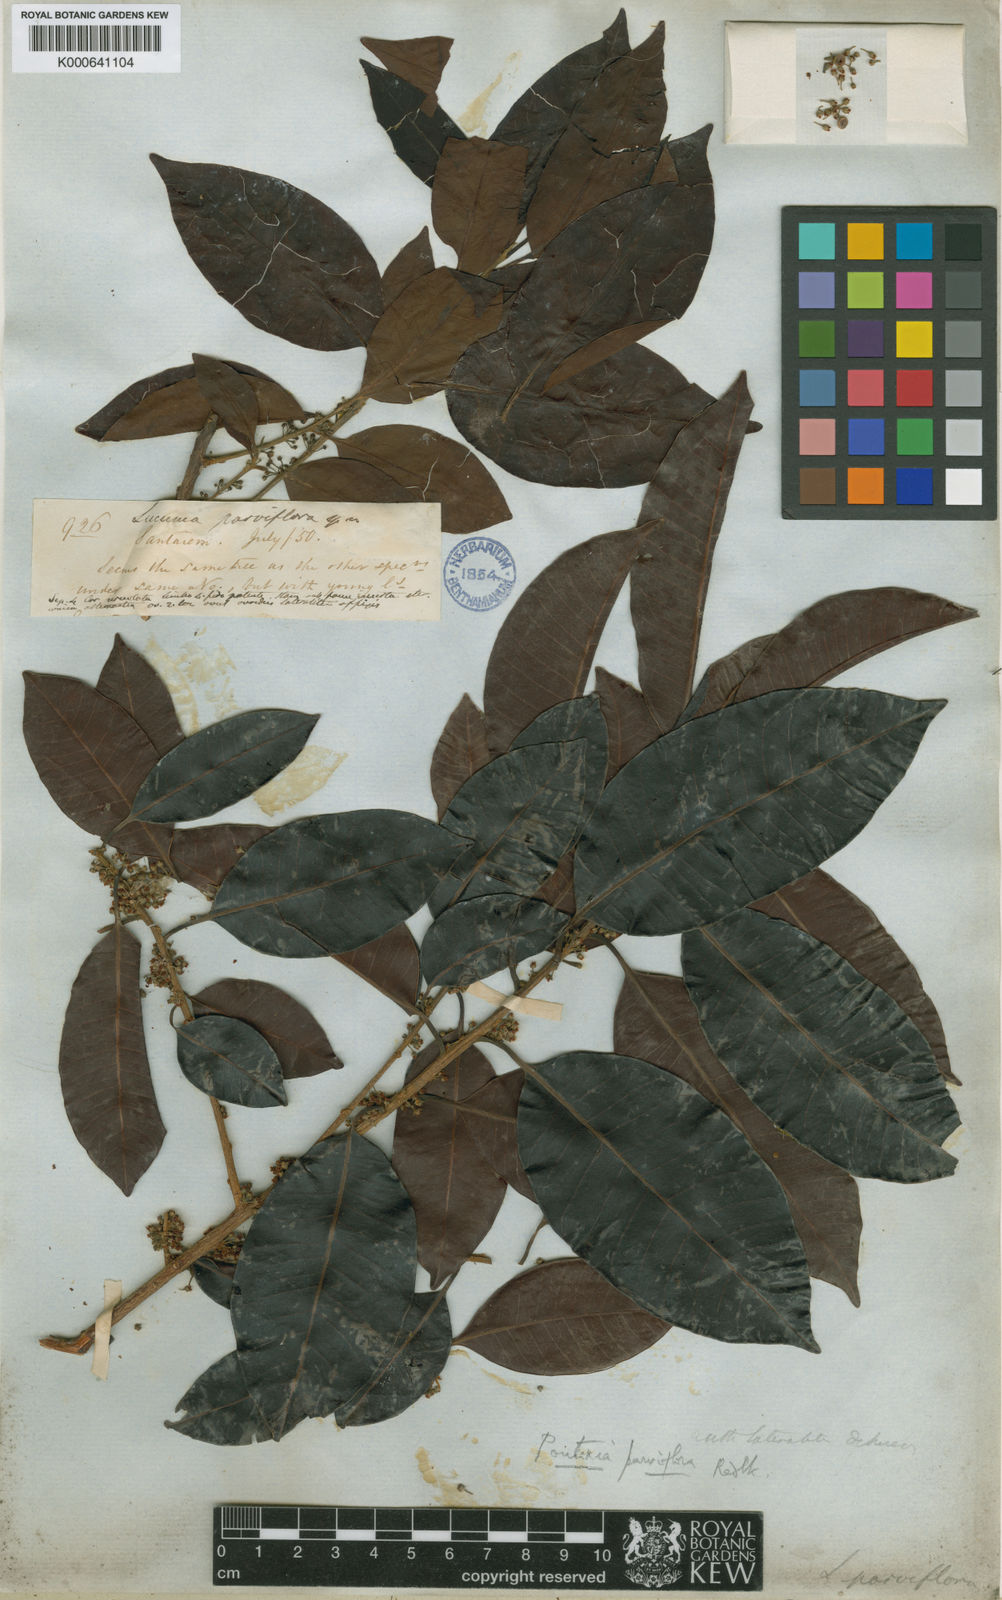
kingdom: Plantae
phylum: Tracheophyta
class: Magnoliopsida
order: Ericales
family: Sapotaceae
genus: Pouteria
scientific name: Pouteria ramiflora
